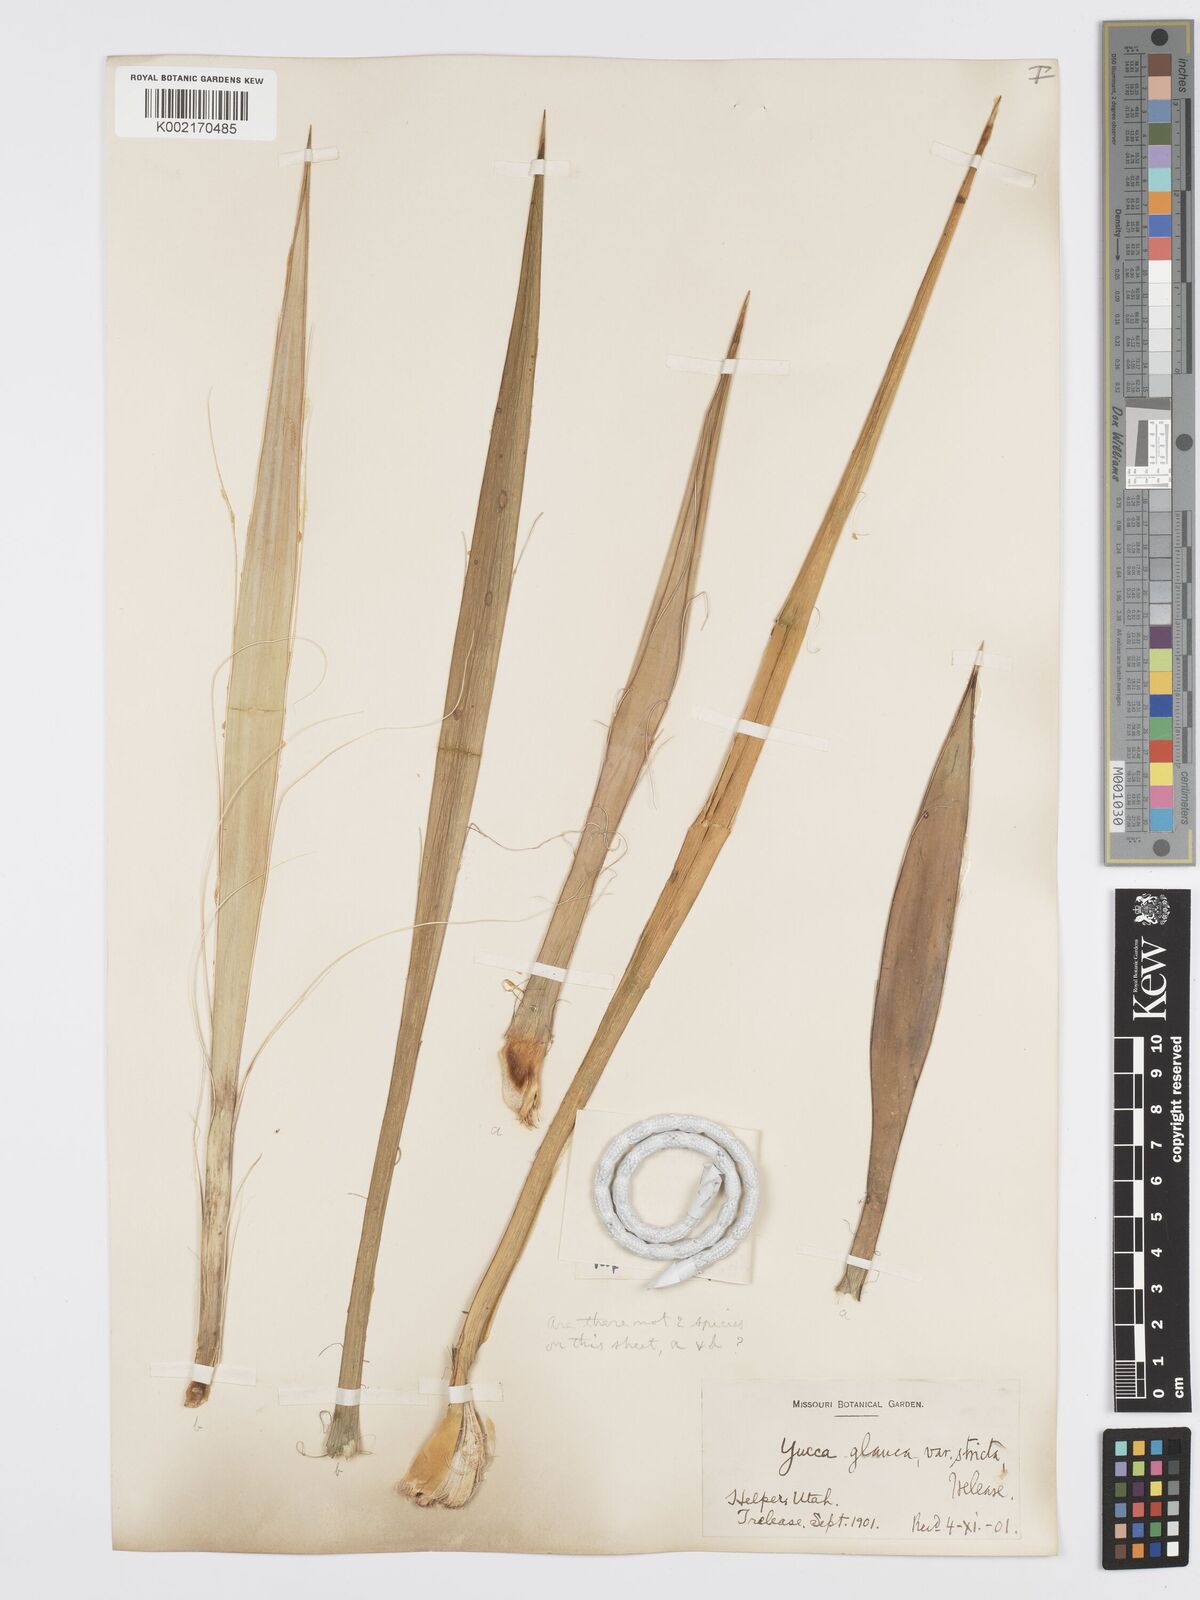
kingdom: Plantae
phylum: Tracheophyta
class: Liliopsida
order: Asparagales
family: Asparagaceae
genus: Yucca
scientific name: Yucca harrimaniae
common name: Harriman's yucca
